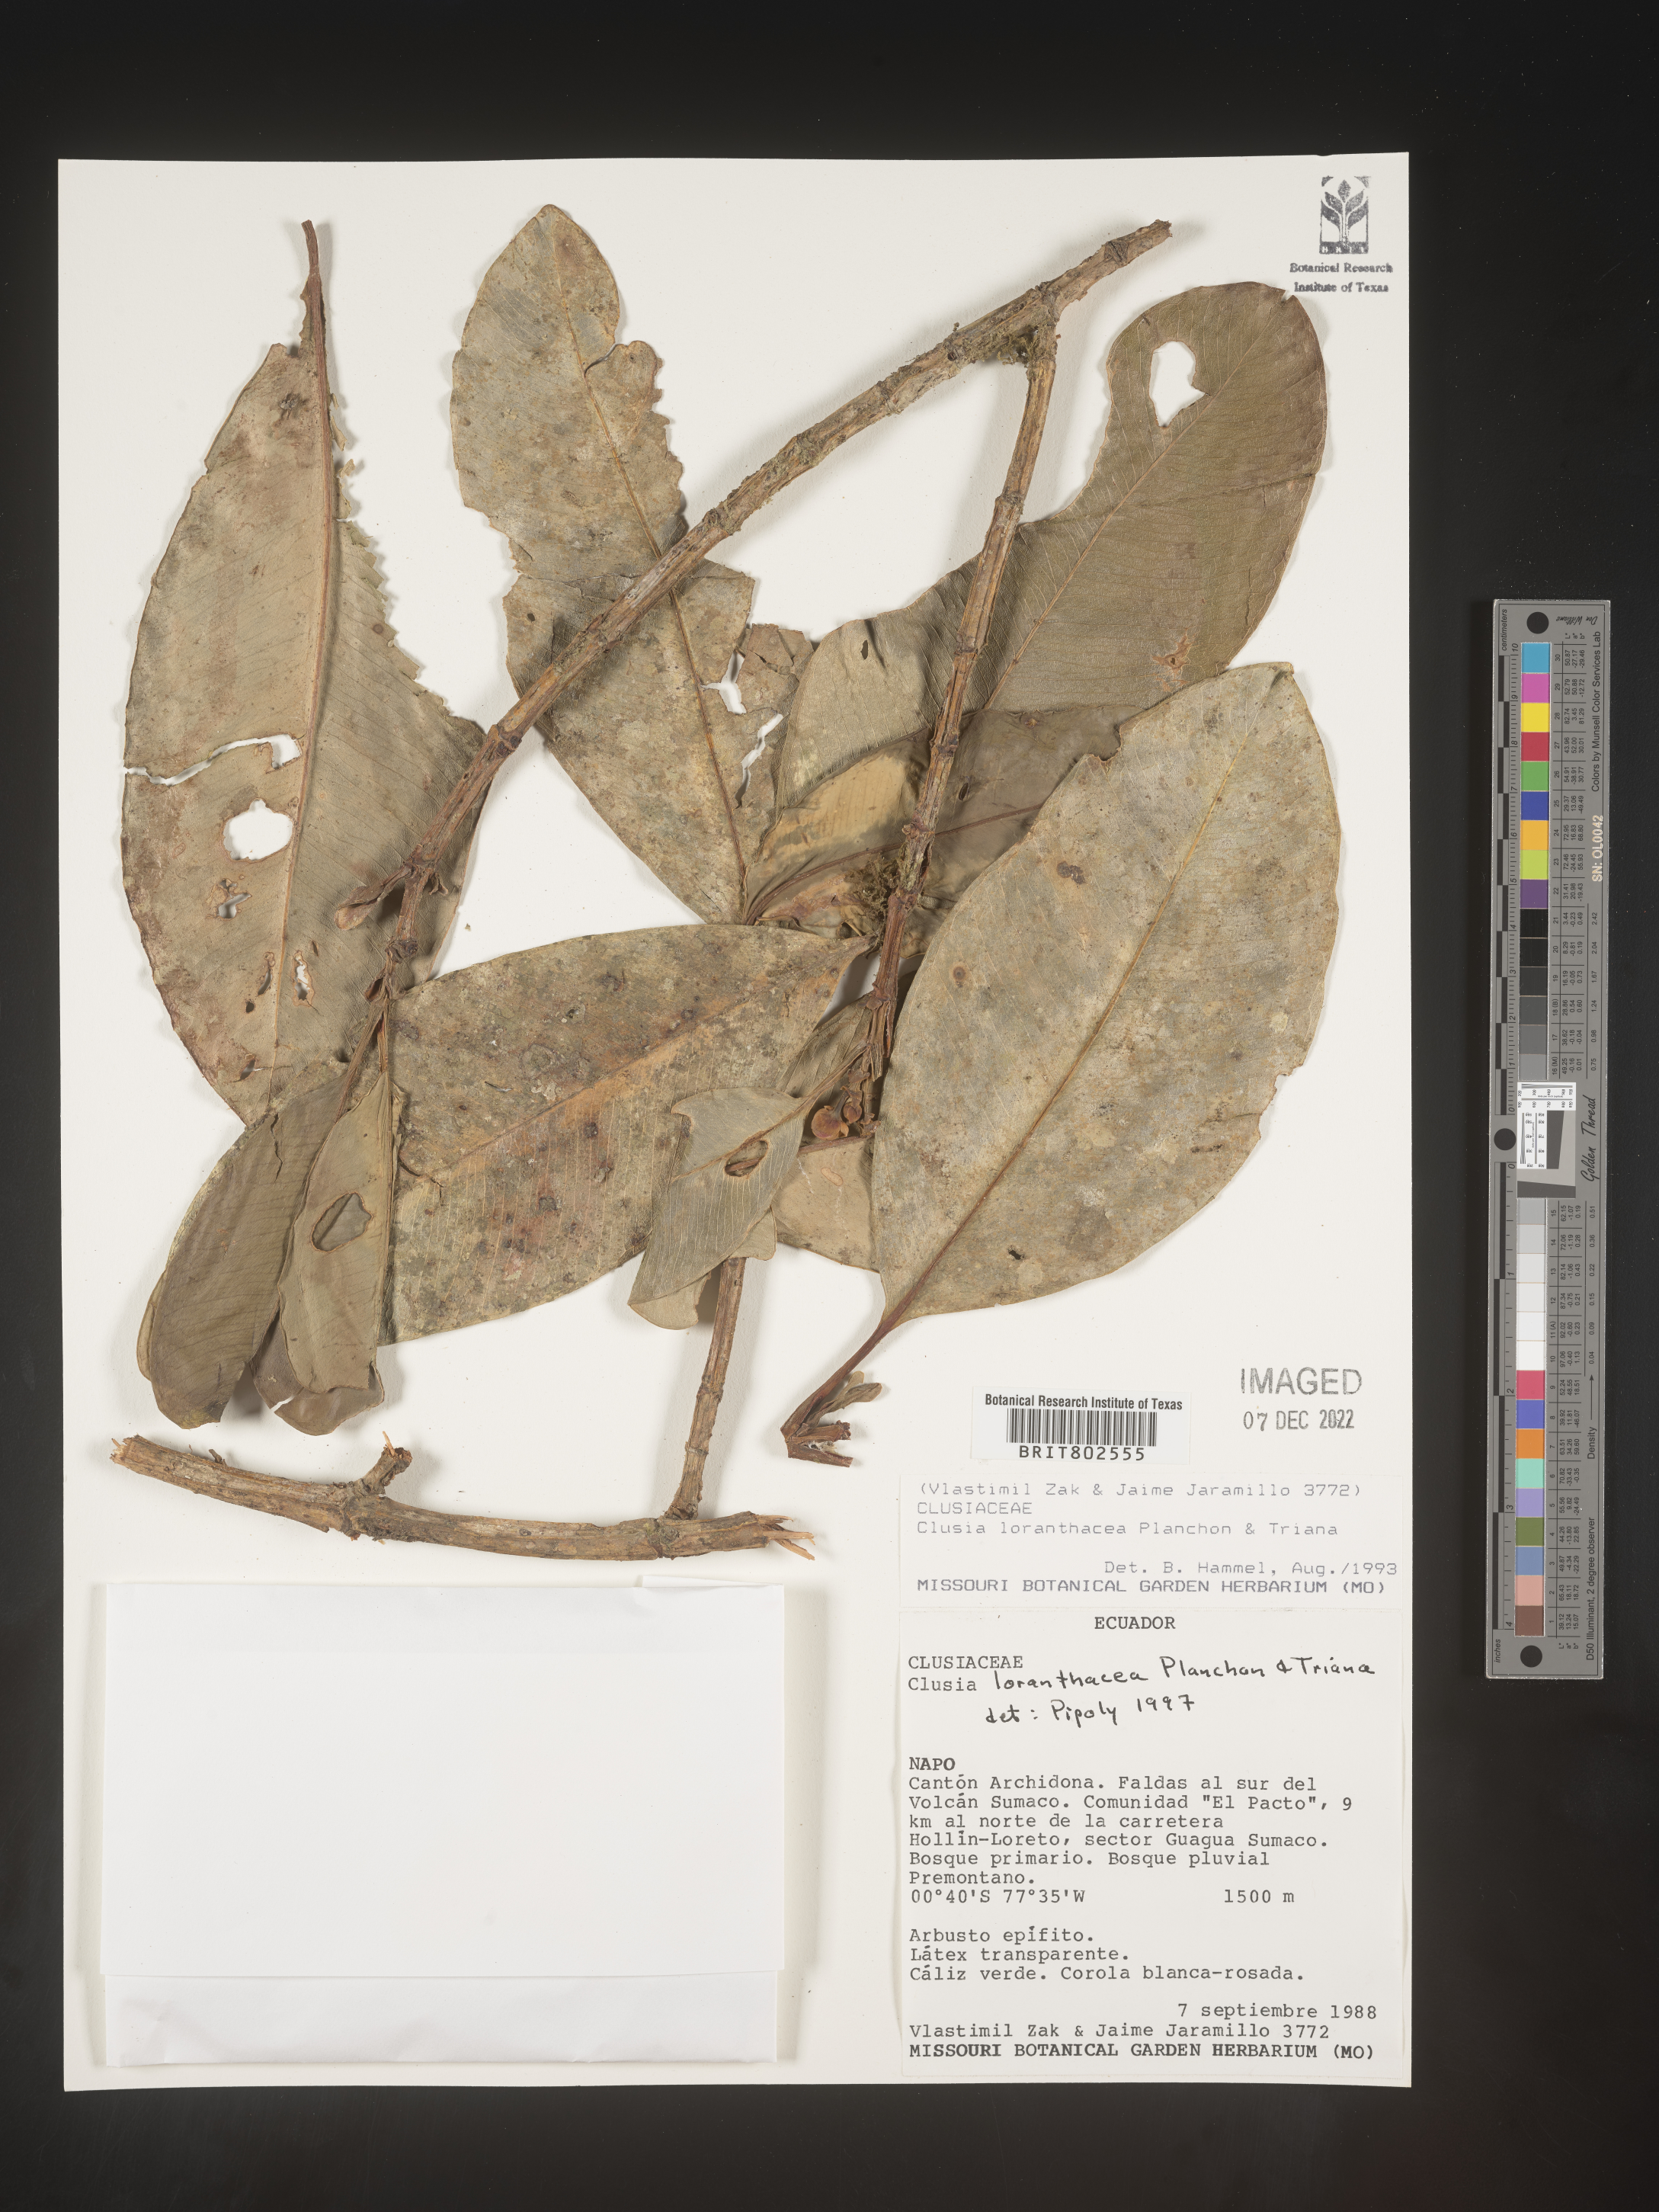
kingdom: Plantae
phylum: Tracheophyta
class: Magnoliopsida
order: Malpighiales
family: Clusiaceae
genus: Clusia
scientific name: Clusia loranthacea
